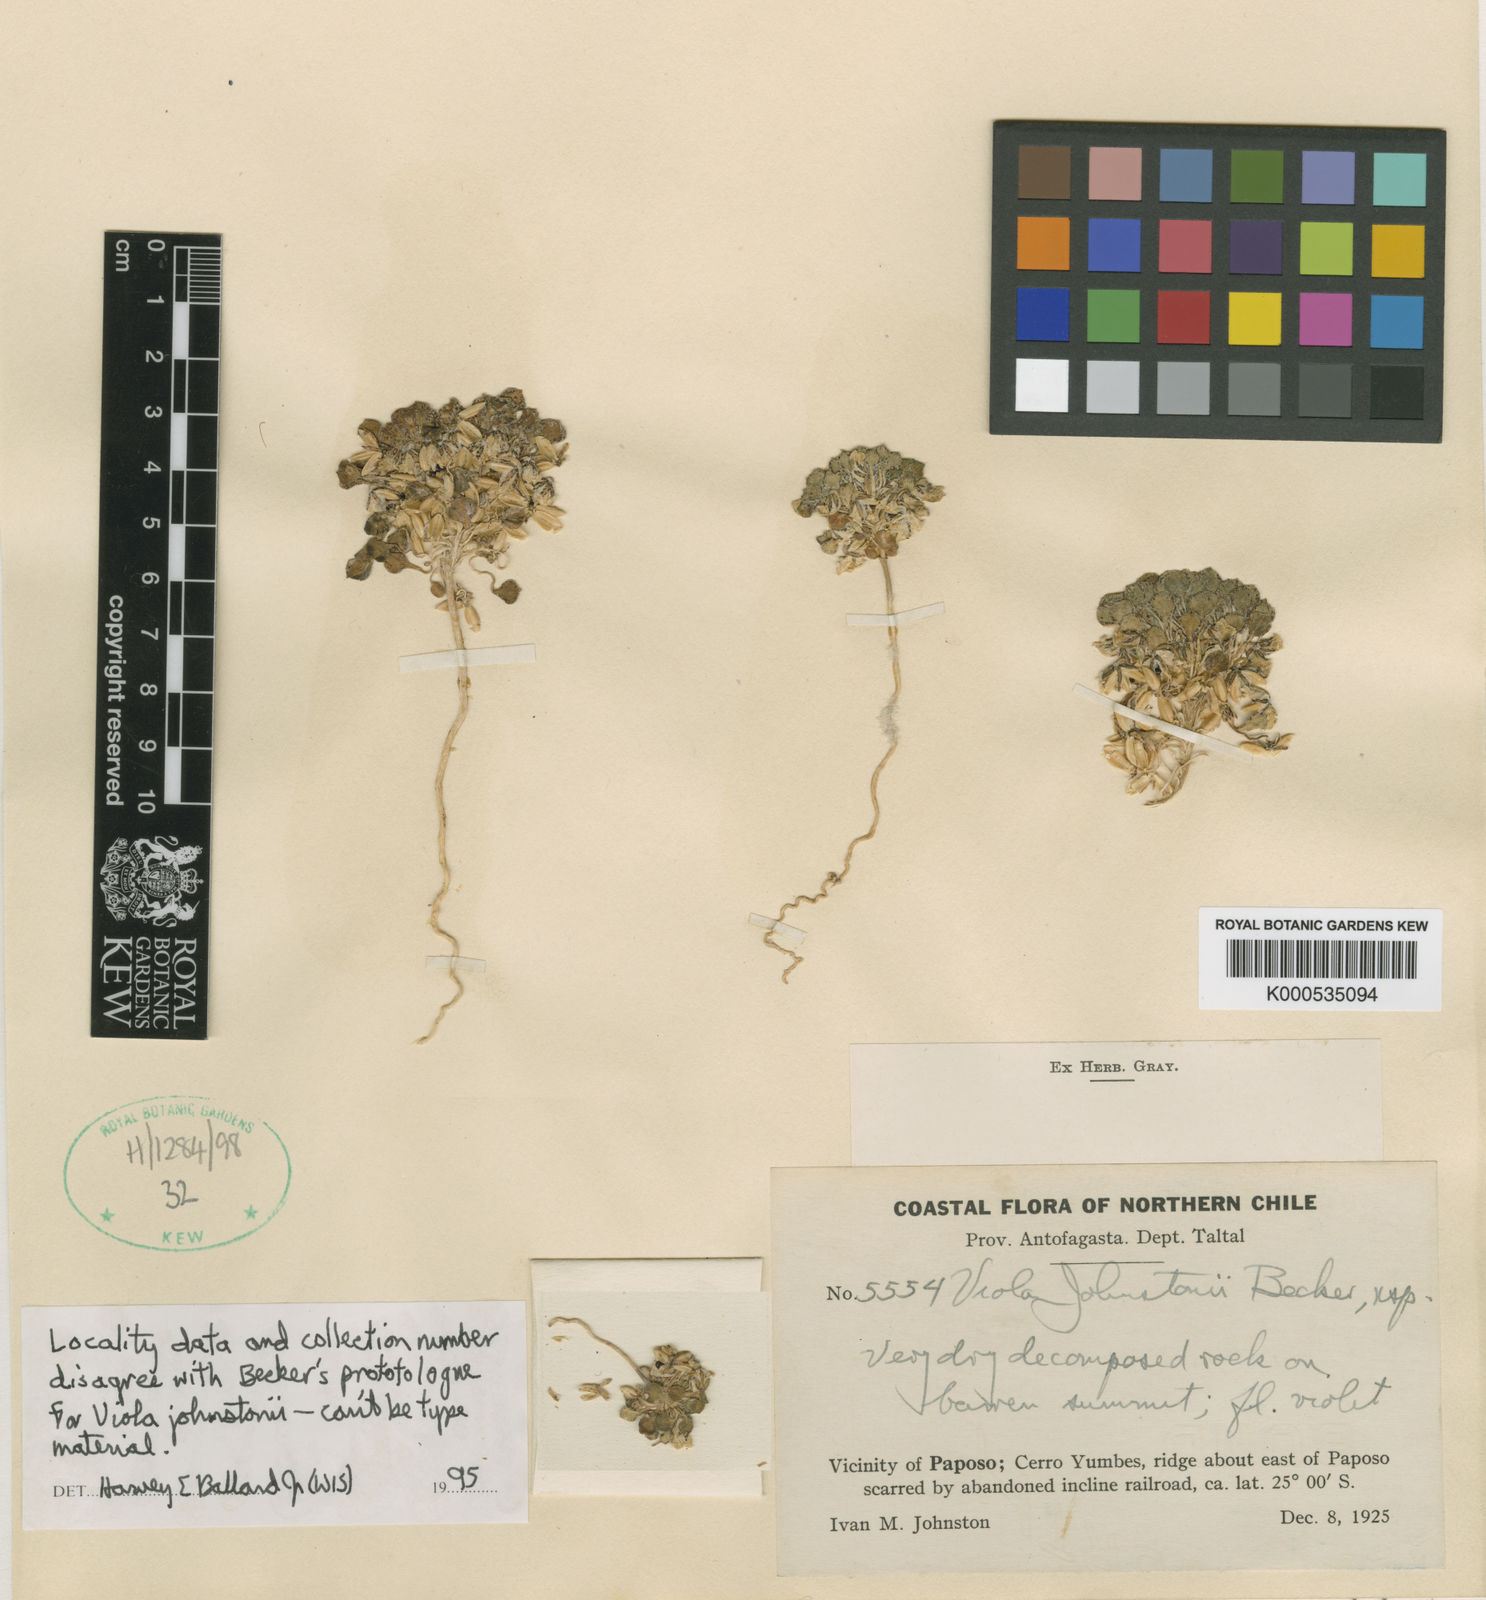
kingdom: Plantae
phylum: Tracheophyta
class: Magnoliopsida
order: Malpighiales
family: Violaceae
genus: Viola
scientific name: Viola johnstonii
